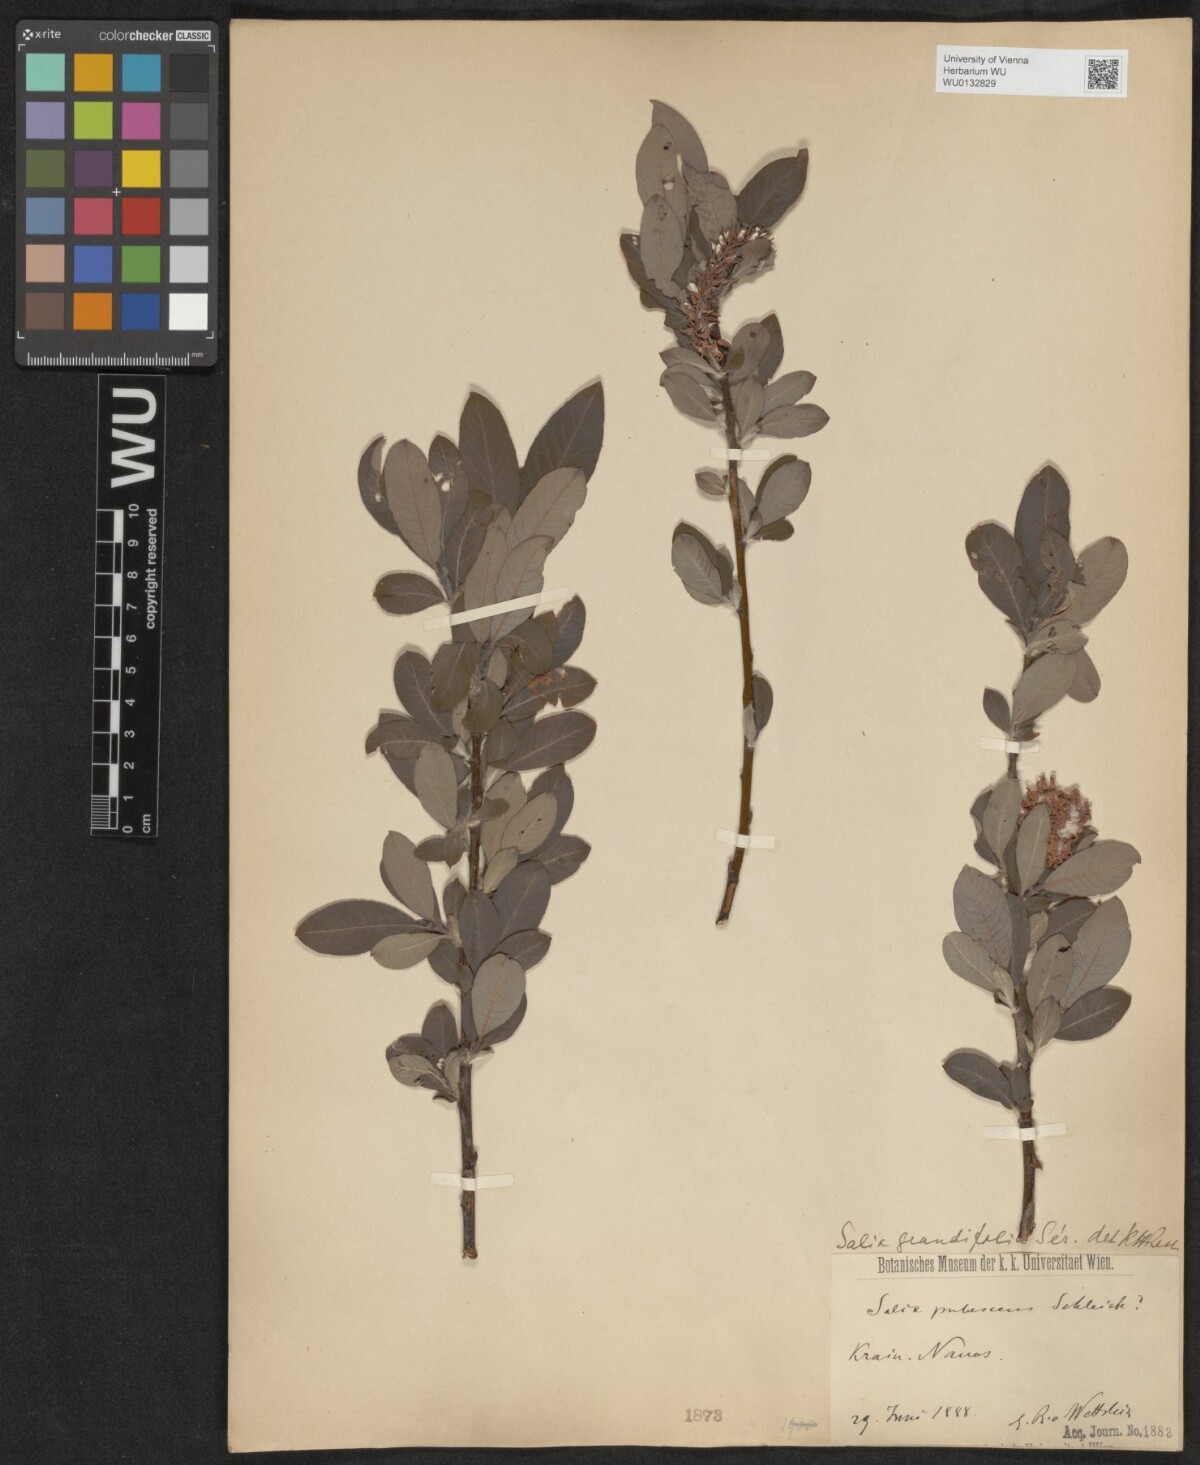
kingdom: Plantae
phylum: Tracheophyta
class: Magnoliopsida
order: Malpighiales
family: Salicaceae
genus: Salix
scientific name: Salix appendiculata
